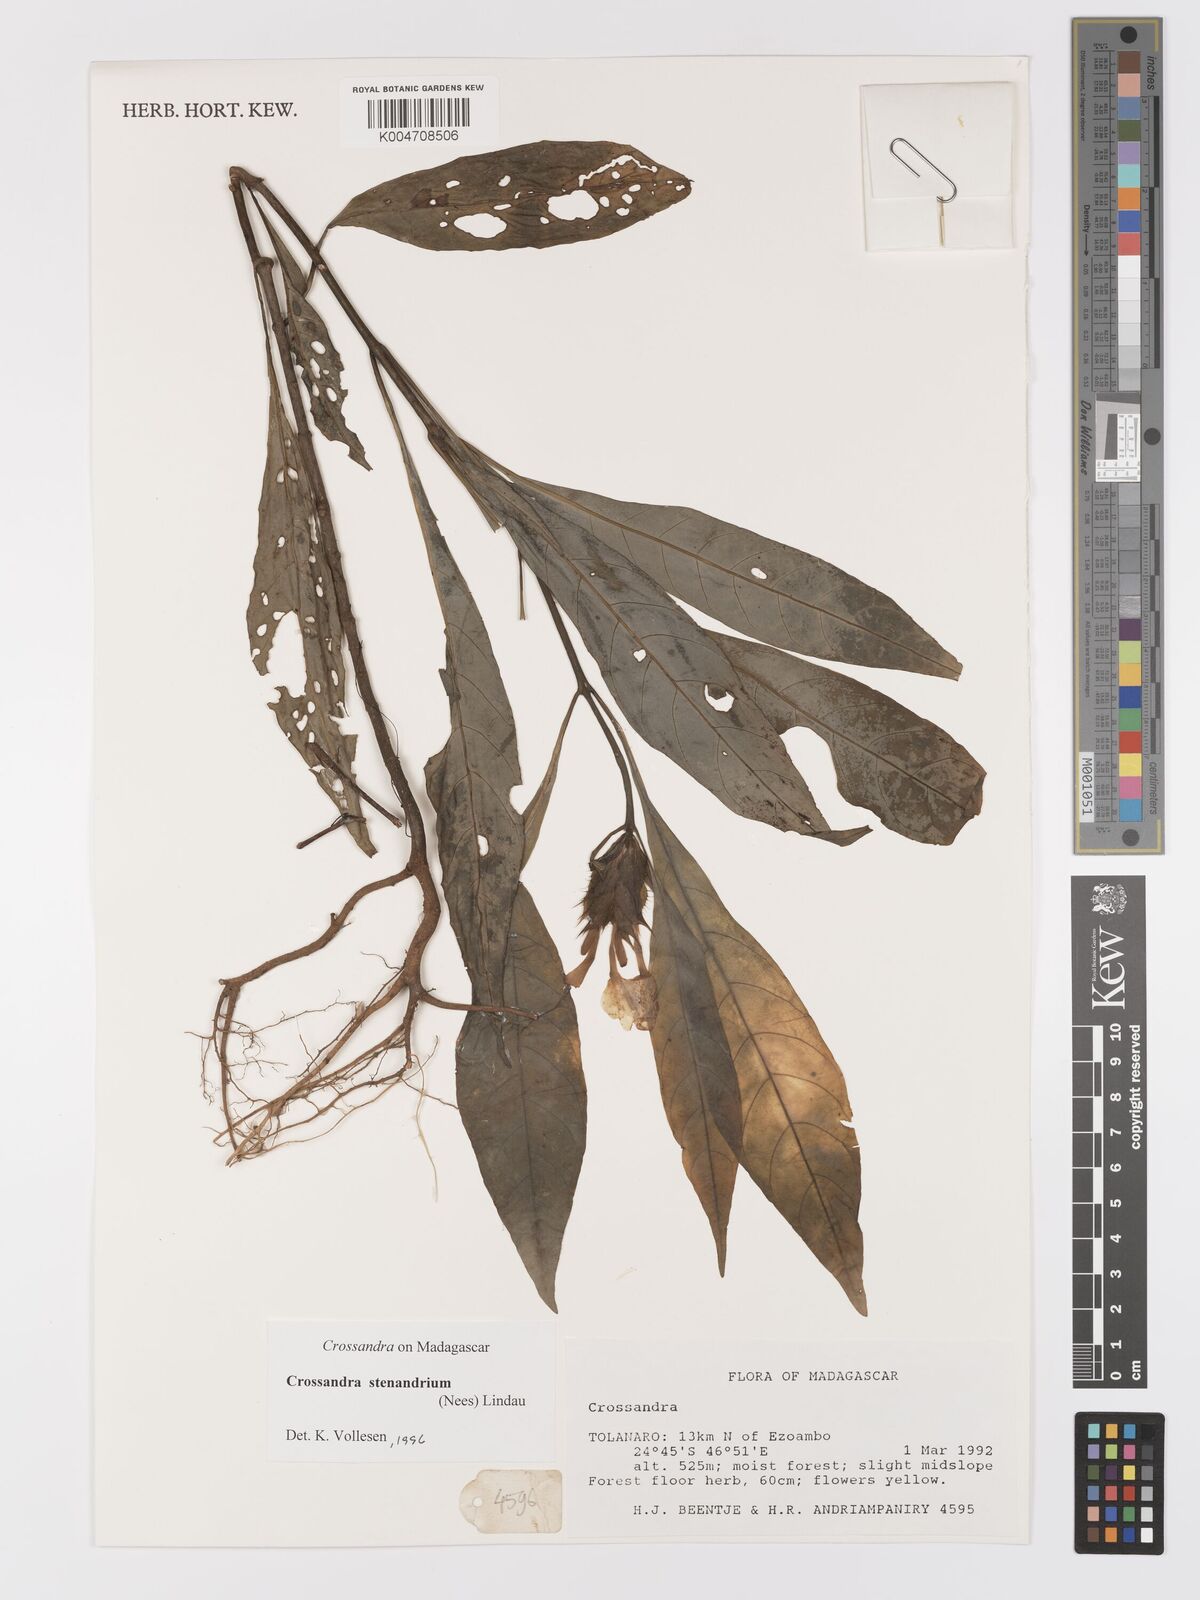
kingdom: Plantae
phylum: Tracheophyta
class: Magnoliopsida
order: Lamiales
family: Acanthaceae
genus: Crossandra
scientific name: Crossandra stenandrium
